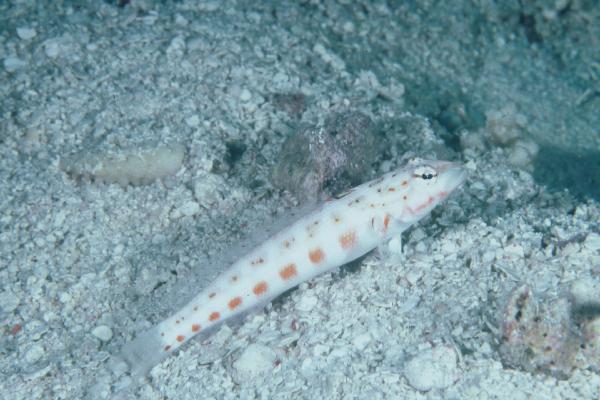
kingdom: Animalia
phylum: Chordata
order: Perciformes
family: Pinguipedidae
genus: Parapercis
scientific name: Parapercis schauinslandii
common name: Redspotted sandperch
